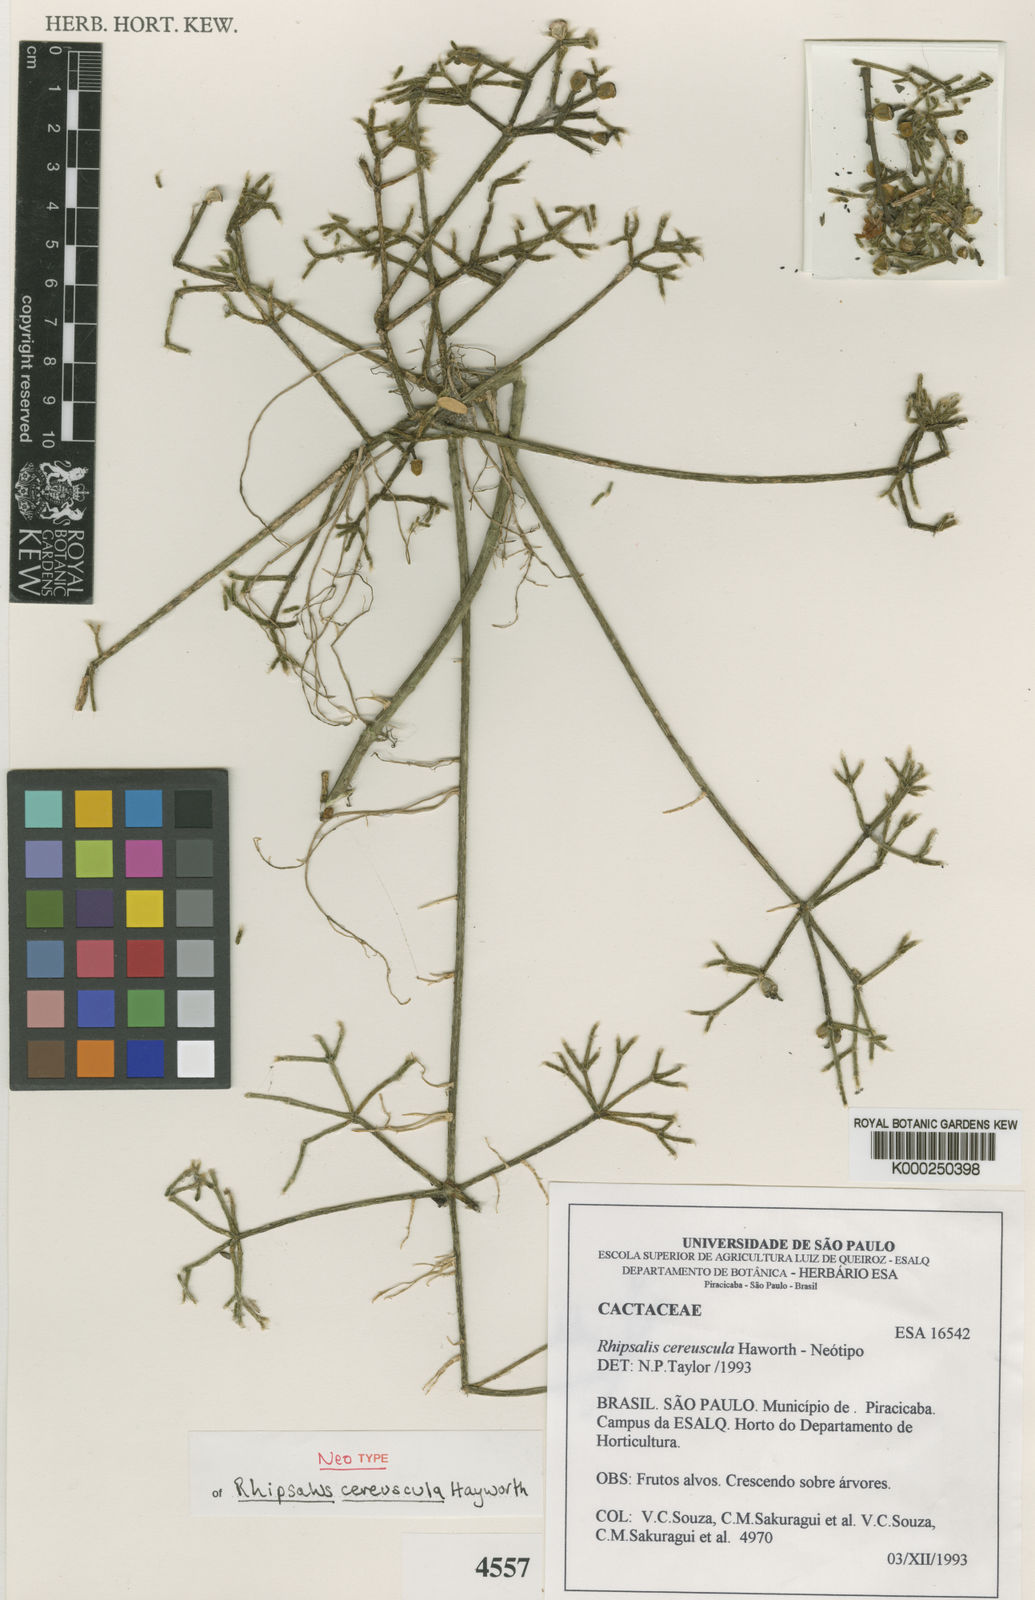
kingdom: Plantae
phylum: Tracheophyta
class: Magnoliopsida
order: Caryophyllales
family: Cactaceae
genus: Rhipsalis
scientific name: Rhipsalis cereuscula
